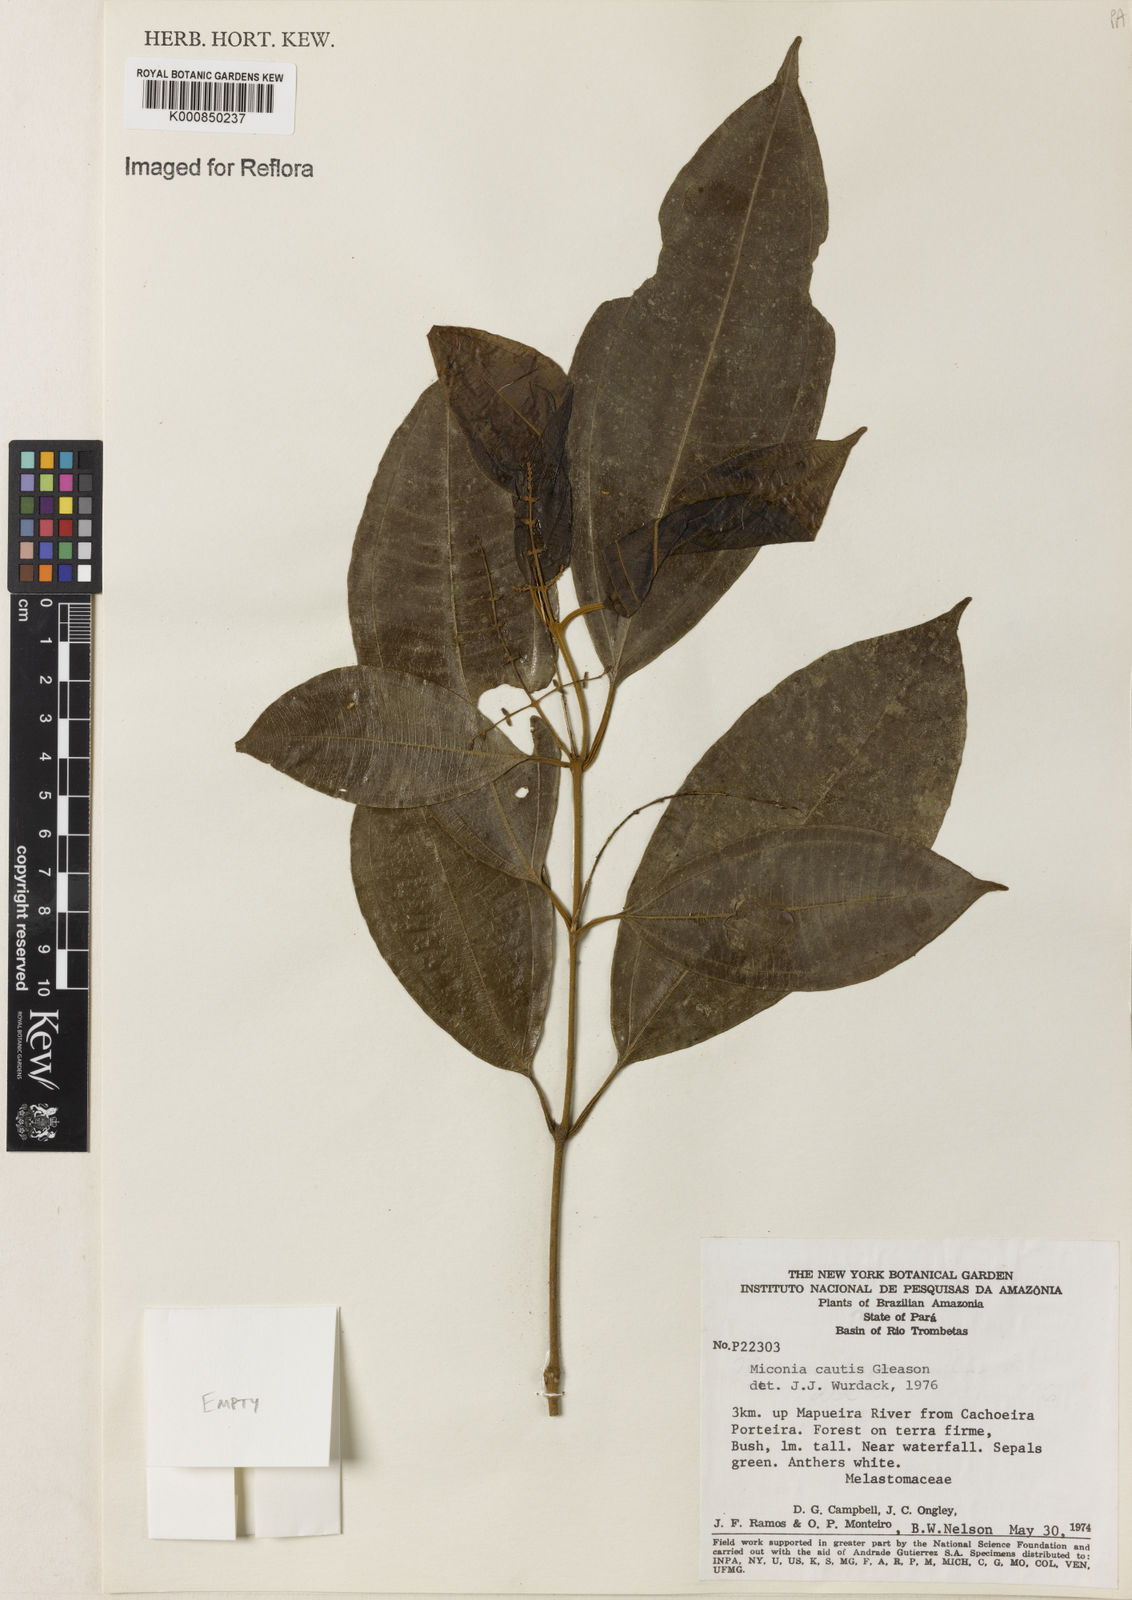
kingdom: Plantae
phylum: Tracheophyta
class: Magnoliopsida
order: Myrtales
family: Melastomataceae
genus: Miconia
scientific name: Miconia
